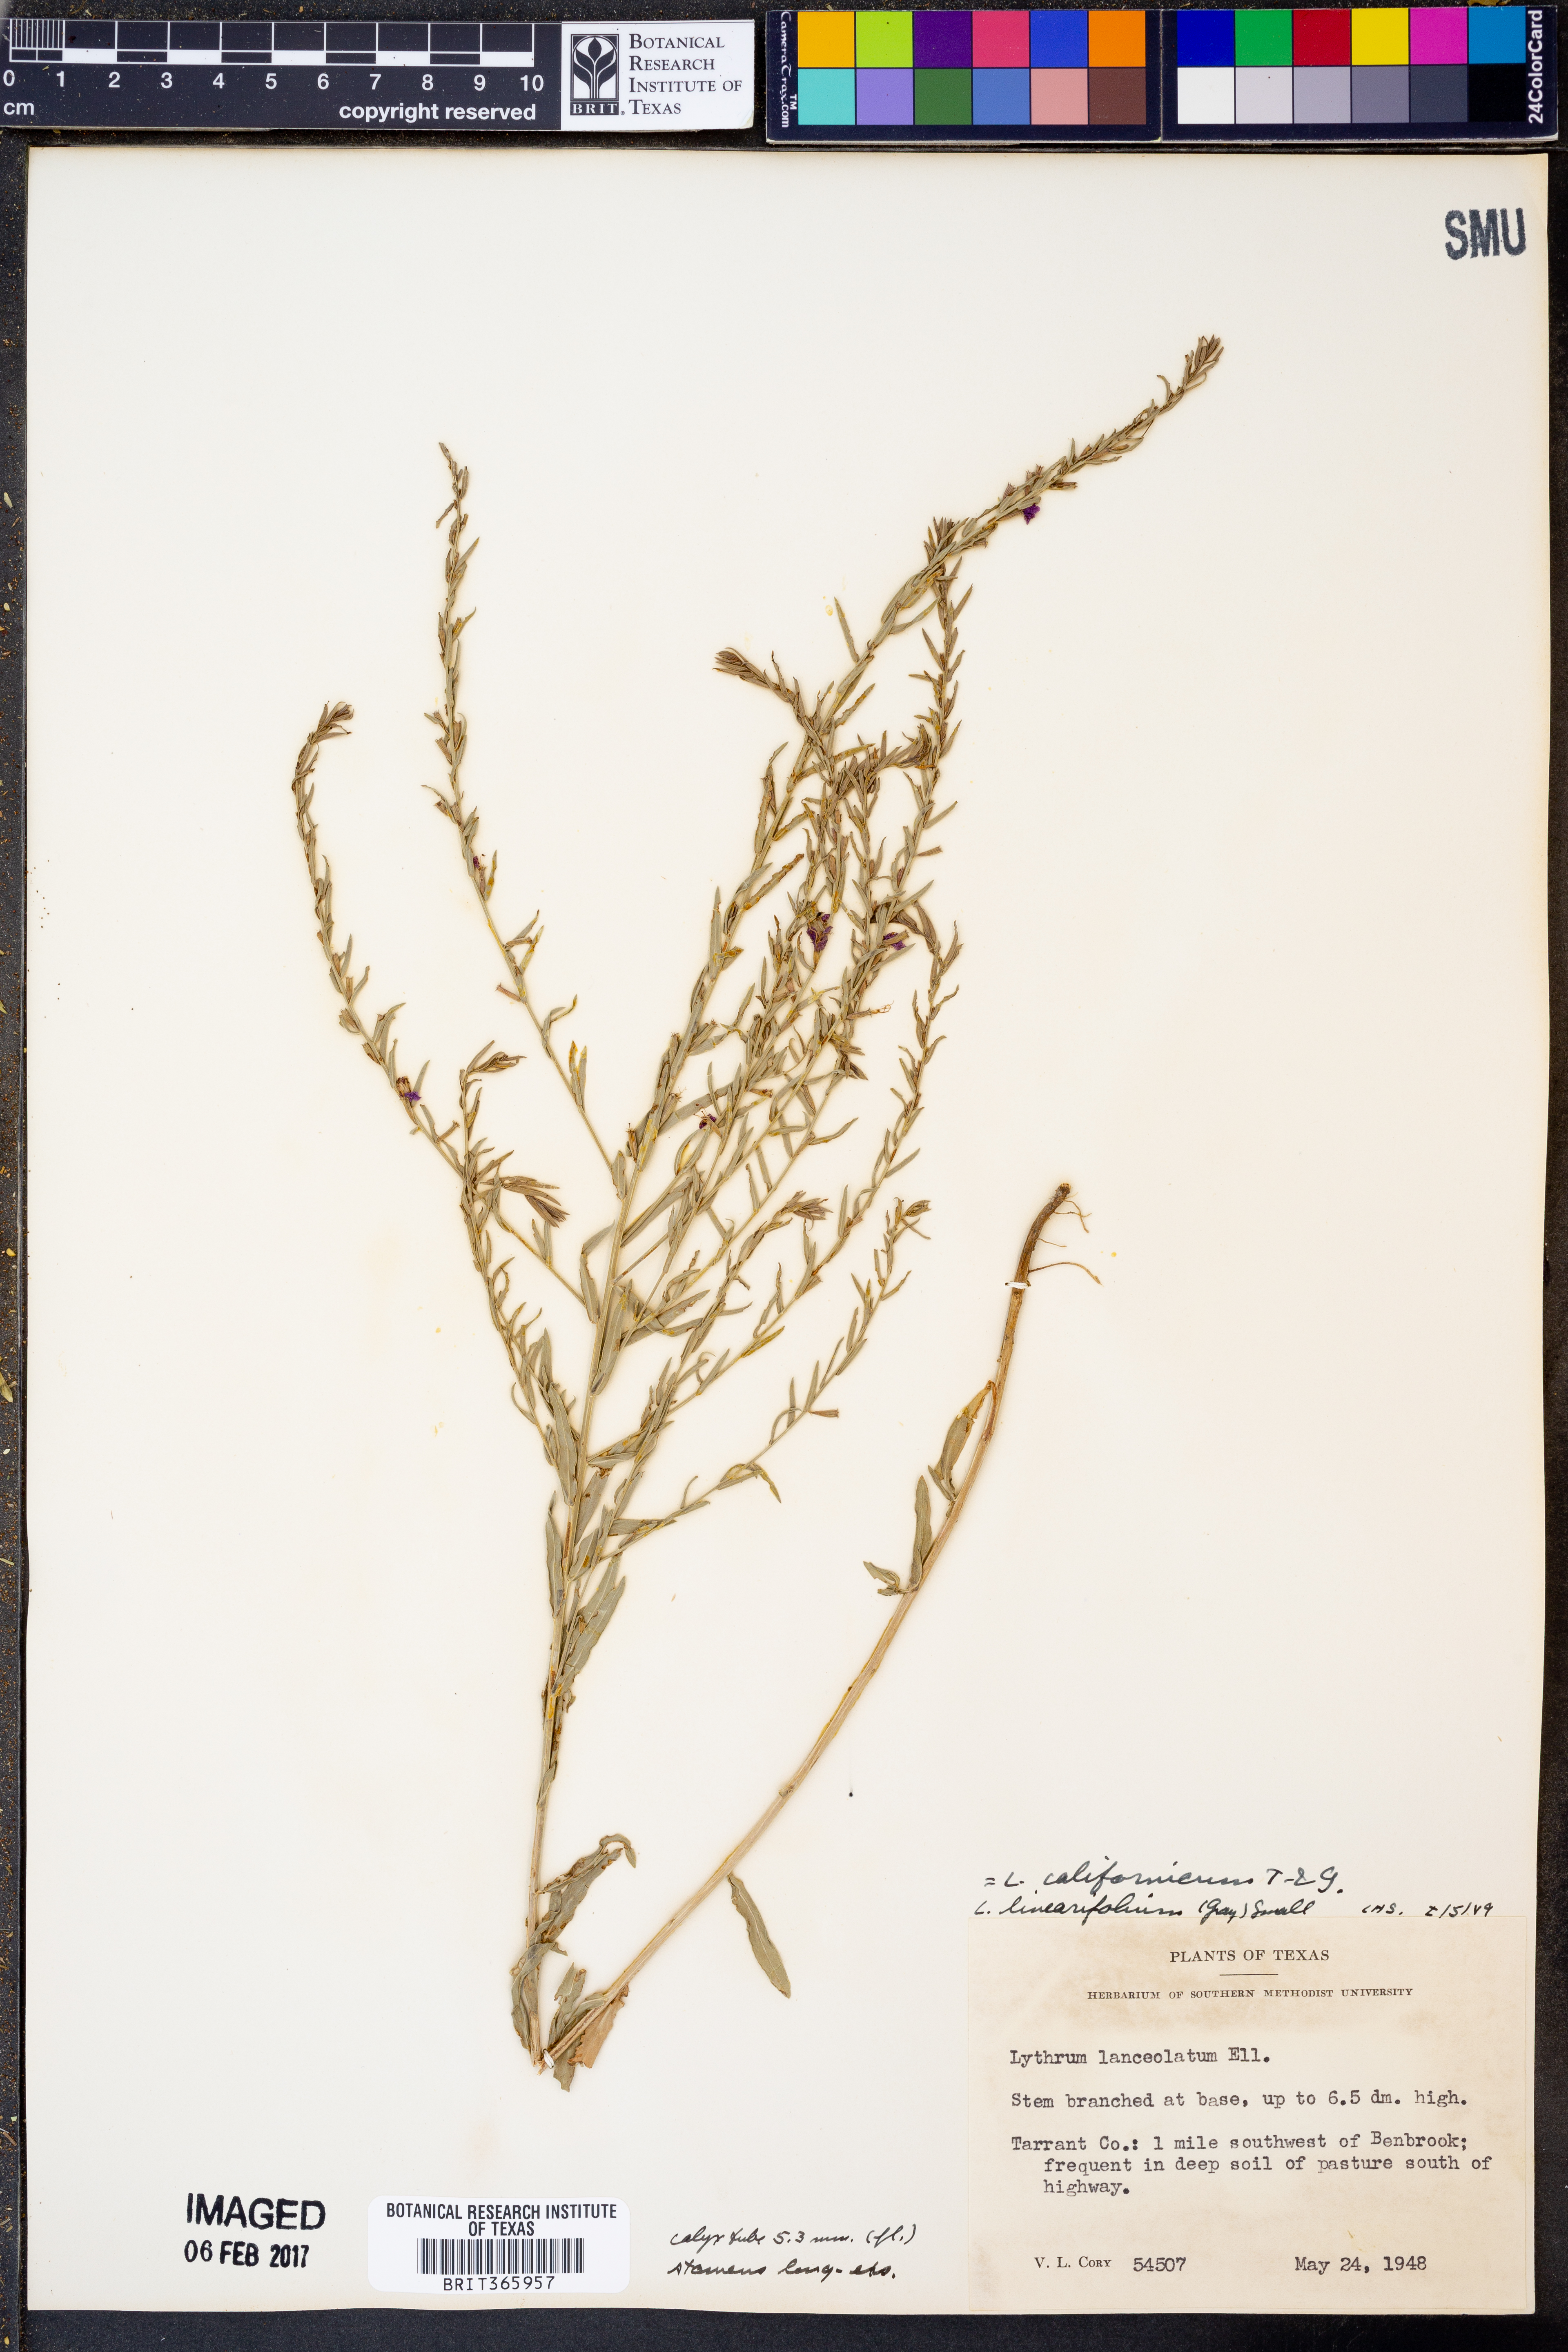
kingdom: Plantae
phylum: Tracheophyta
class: Magnoliopsida
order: Myrtales
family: Lythraceae
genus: Lythrum
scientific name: Lythrum californicum
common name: California loosestrife
